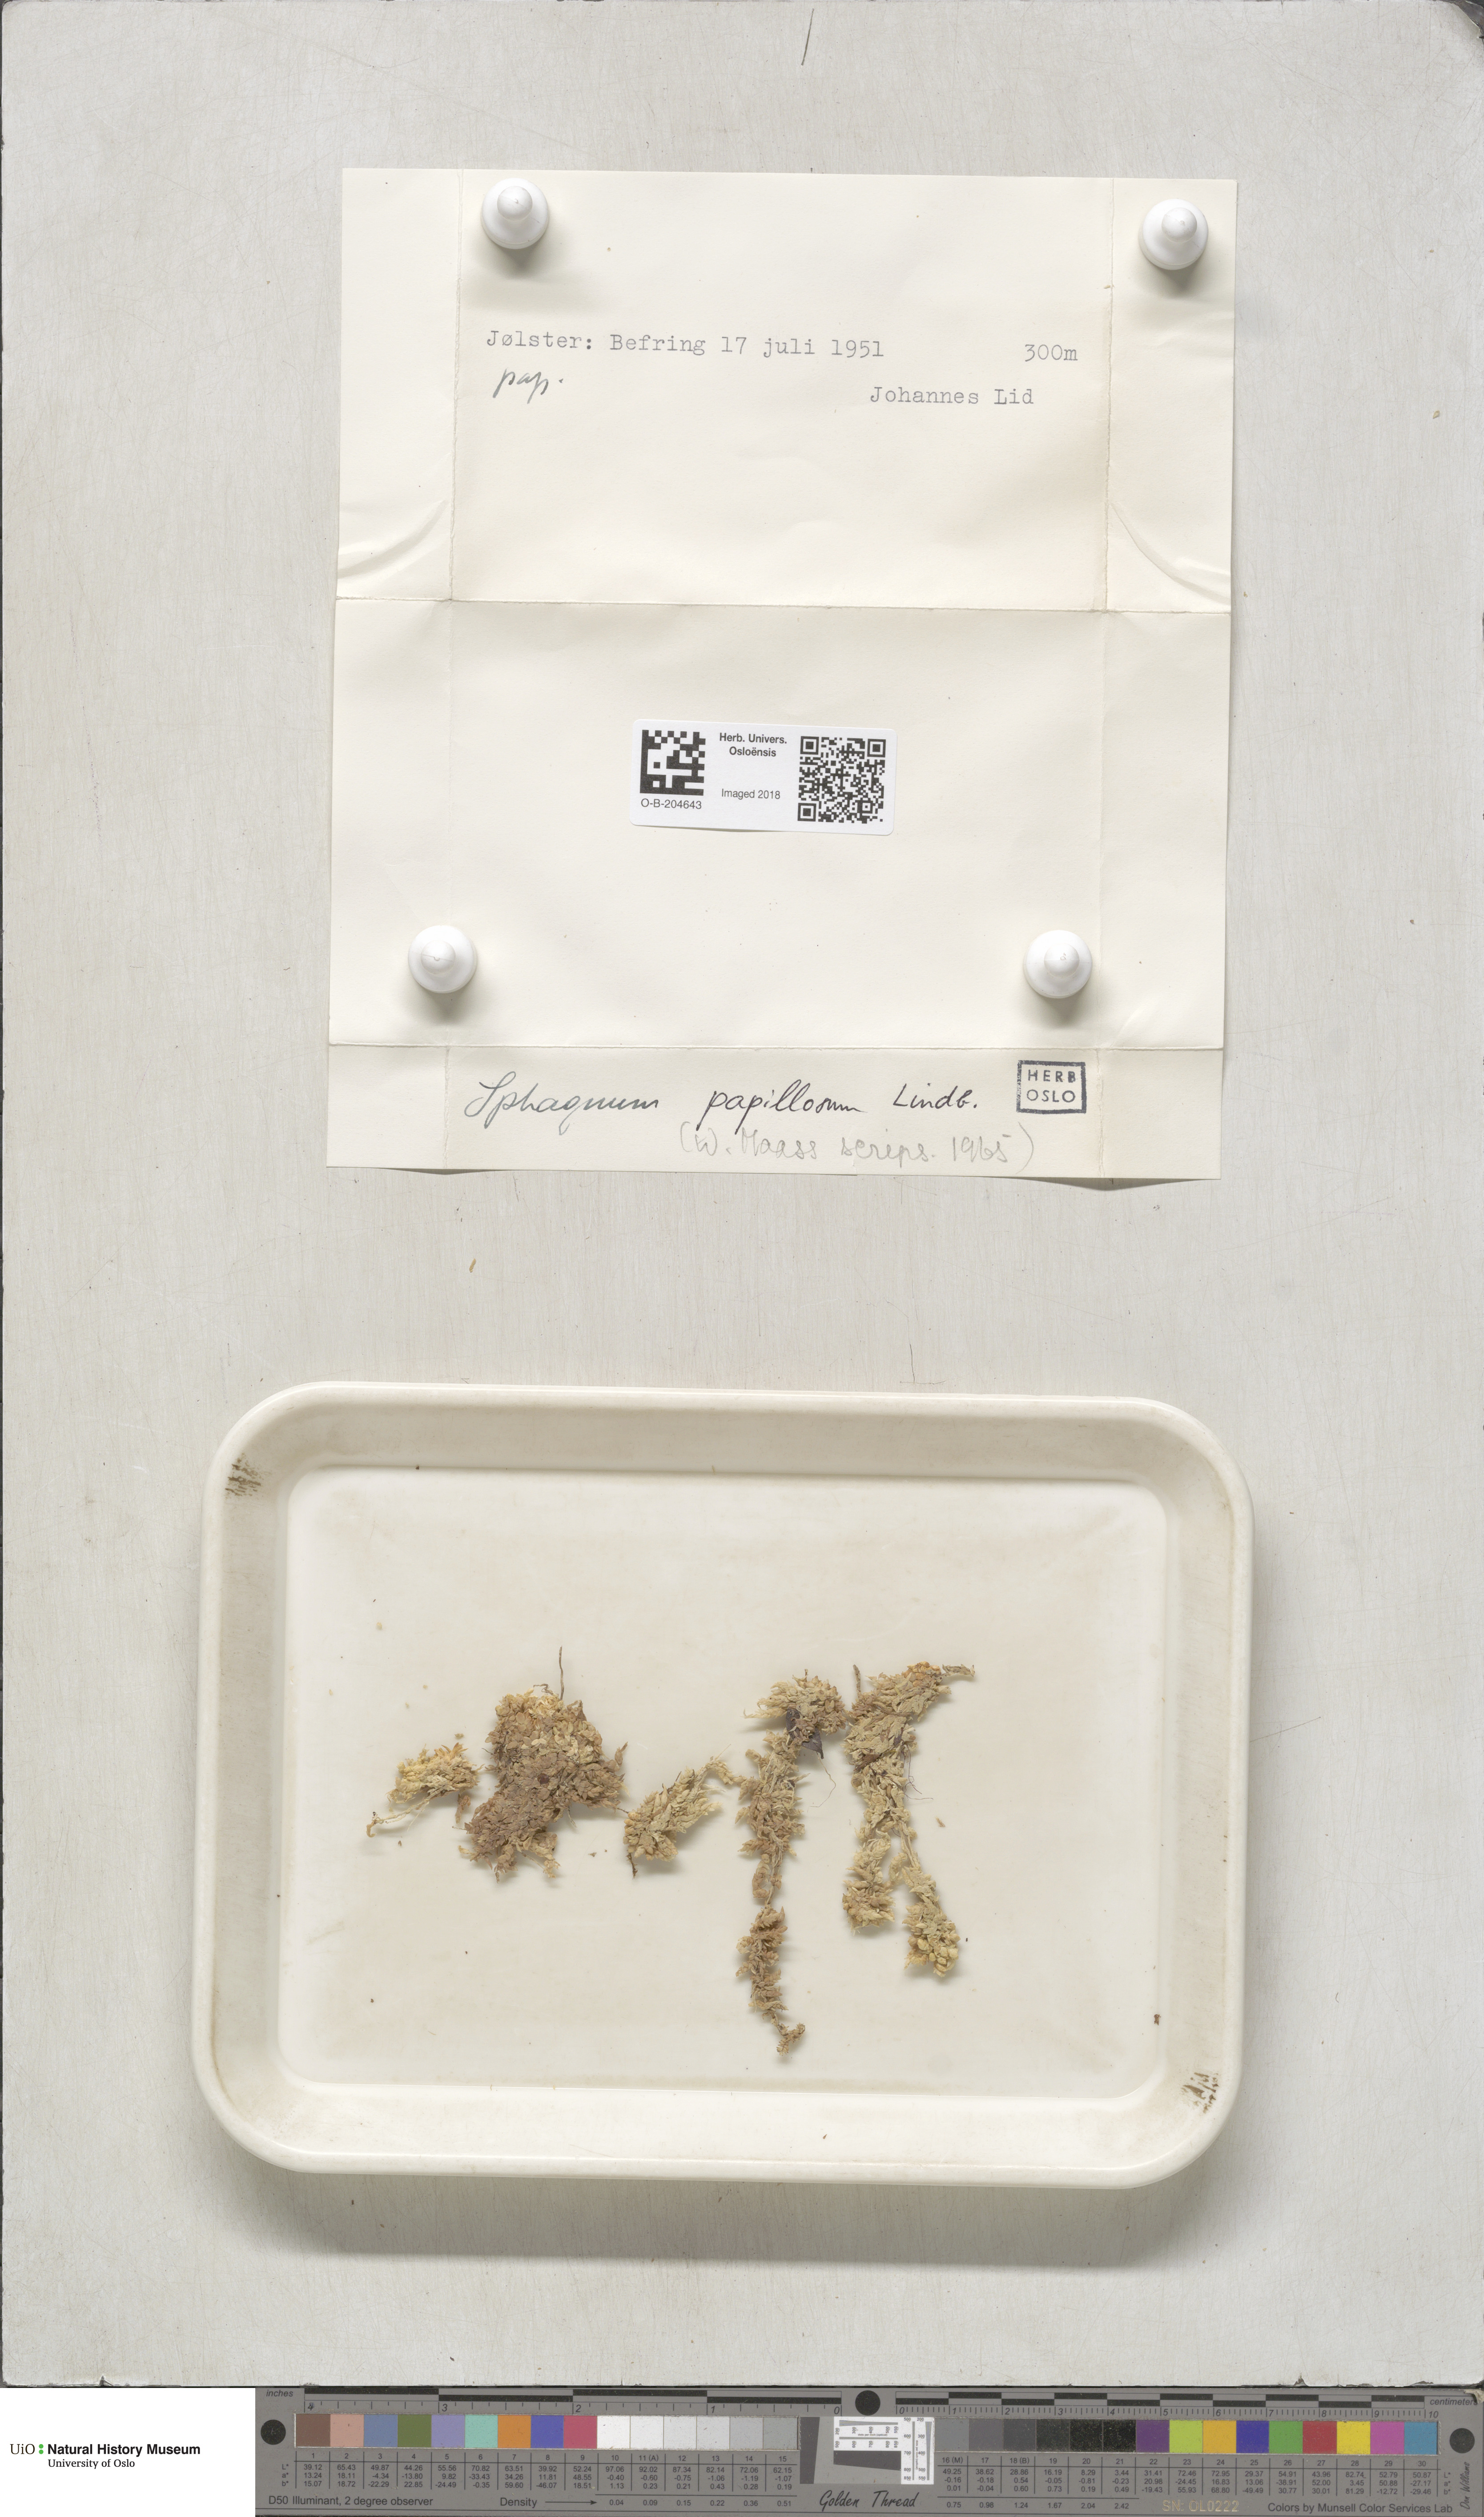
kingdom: Plantae
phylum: Bryophyta
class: Sphagnopsida
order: Sphagnales
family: Sphagnaceae
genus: Sphagnum
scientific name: Sphagnum papillosum
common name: Papillose peat moss
